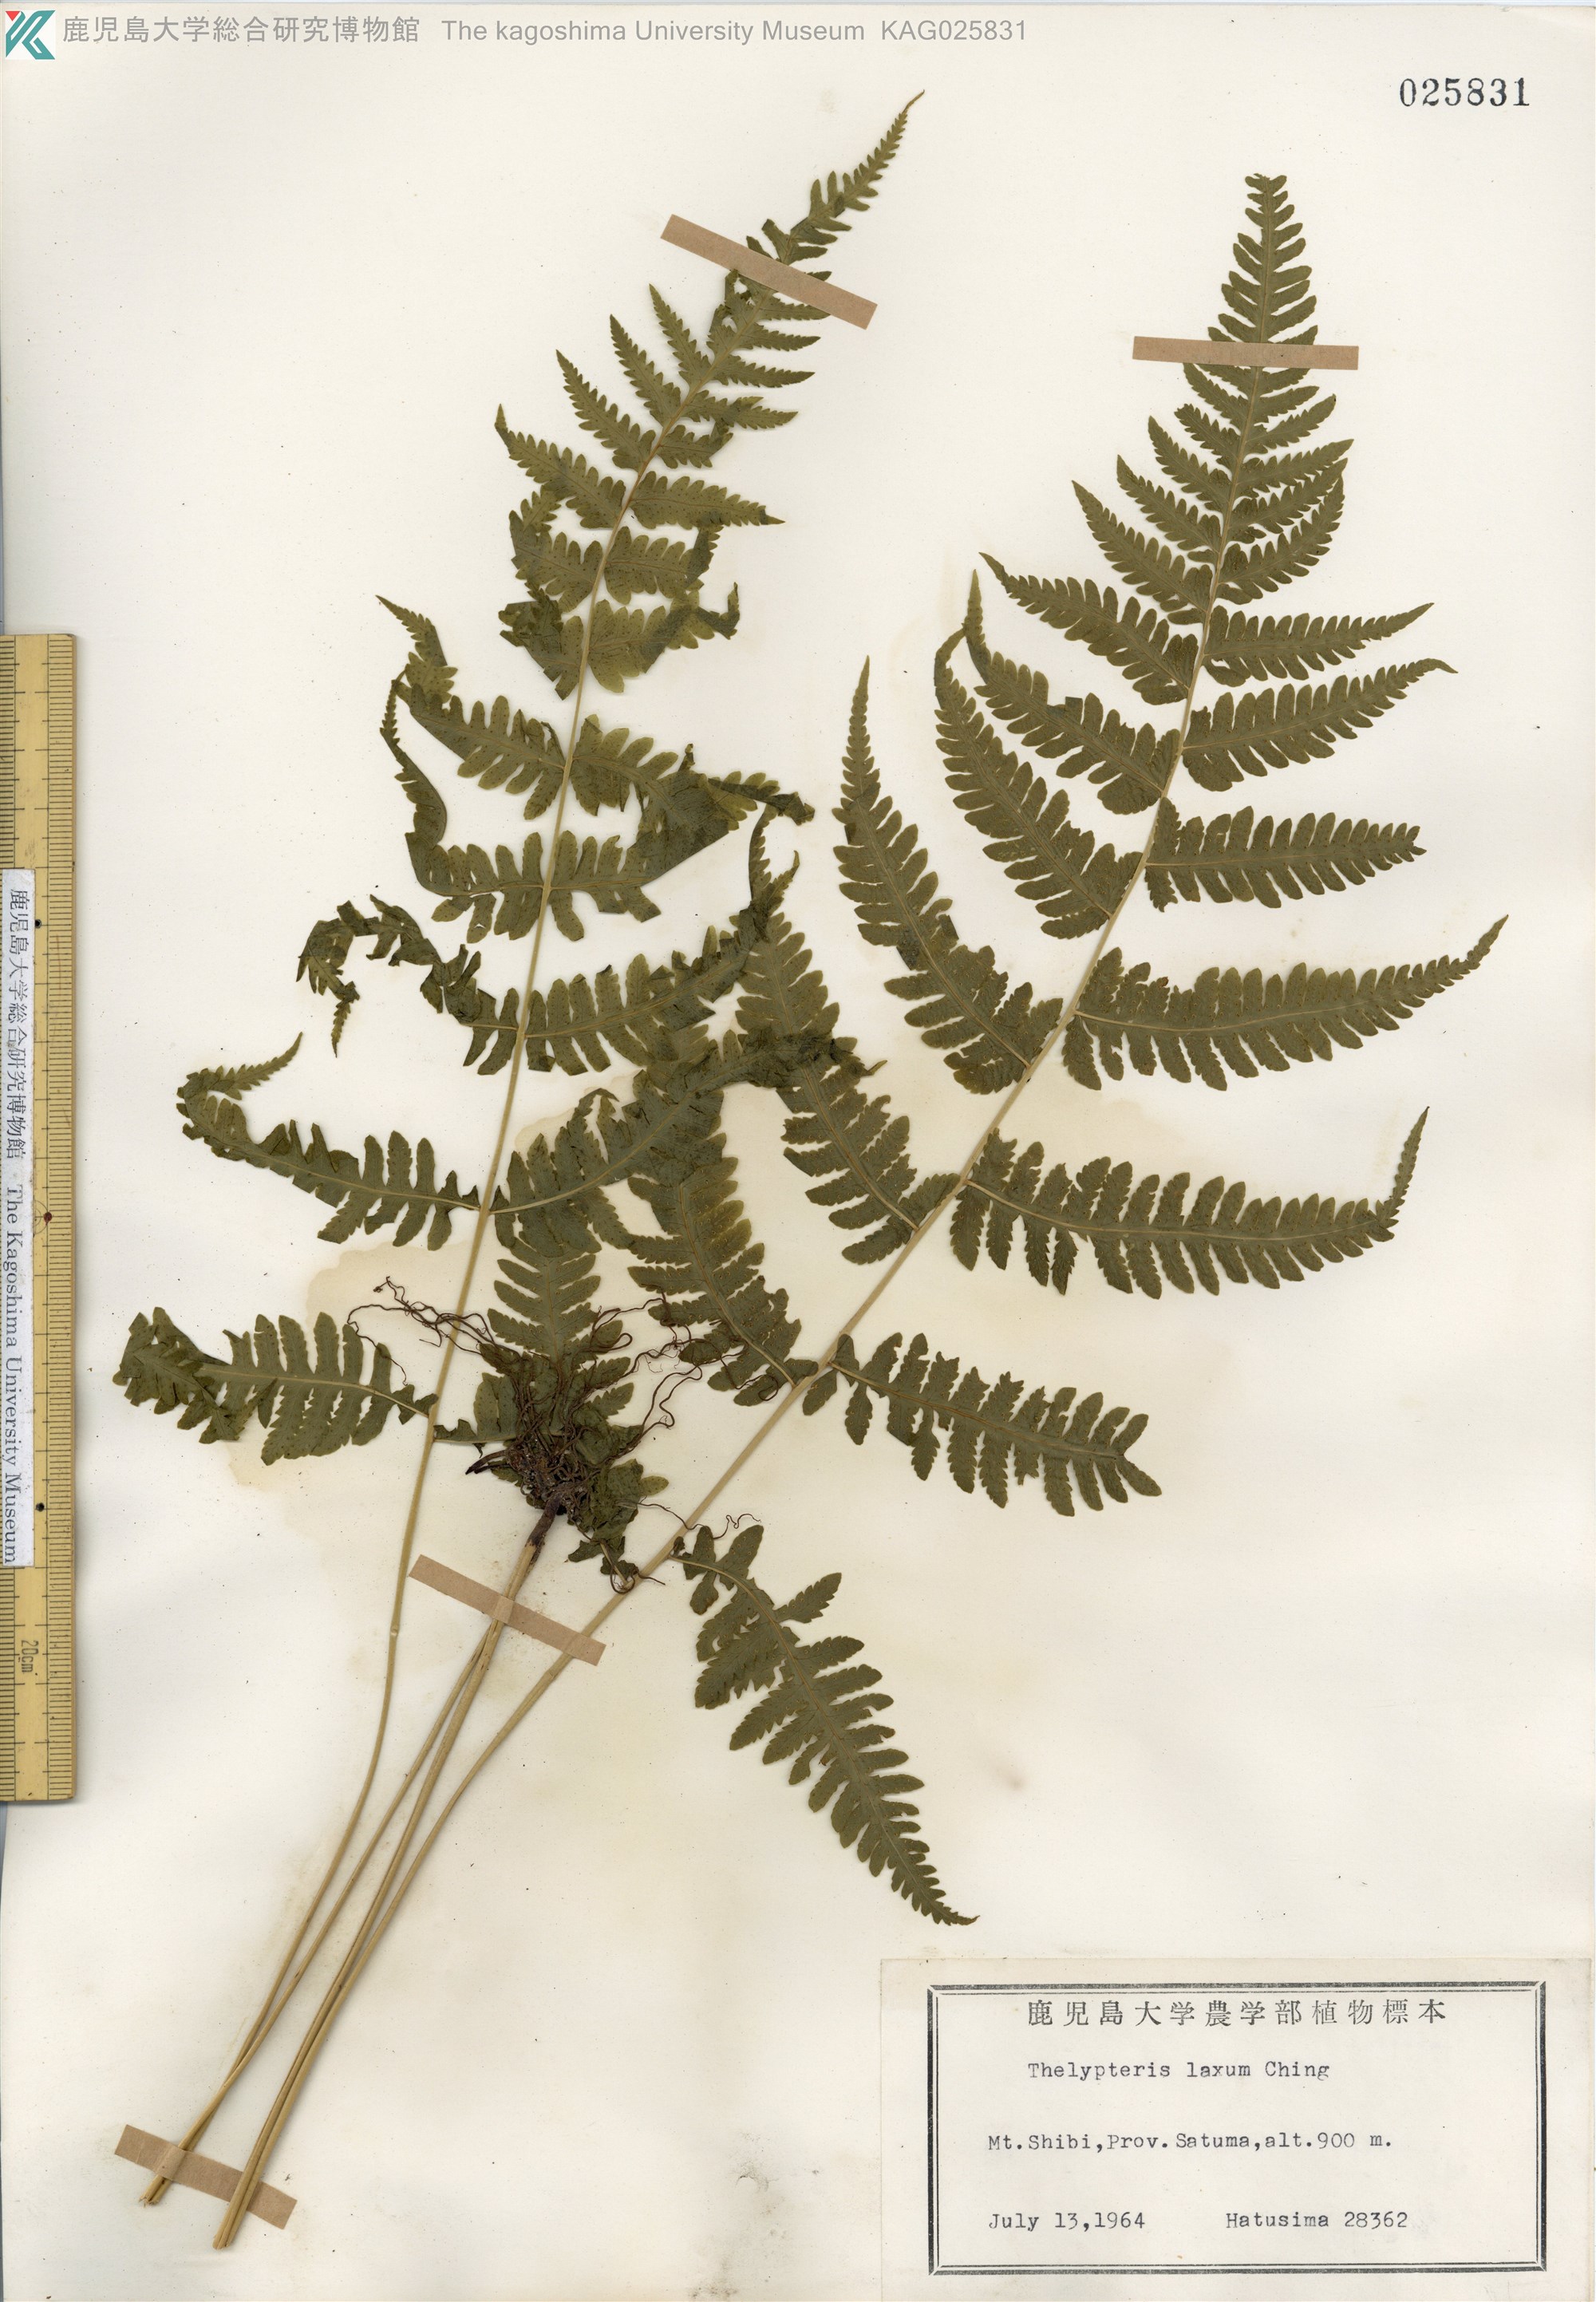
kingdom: Plantae
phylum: Tracheophyta
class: Polypodiopsida
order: Polypodiales
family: Thelypteridaceae
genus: Metathelypteris
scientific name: Metathelypteris laxa
